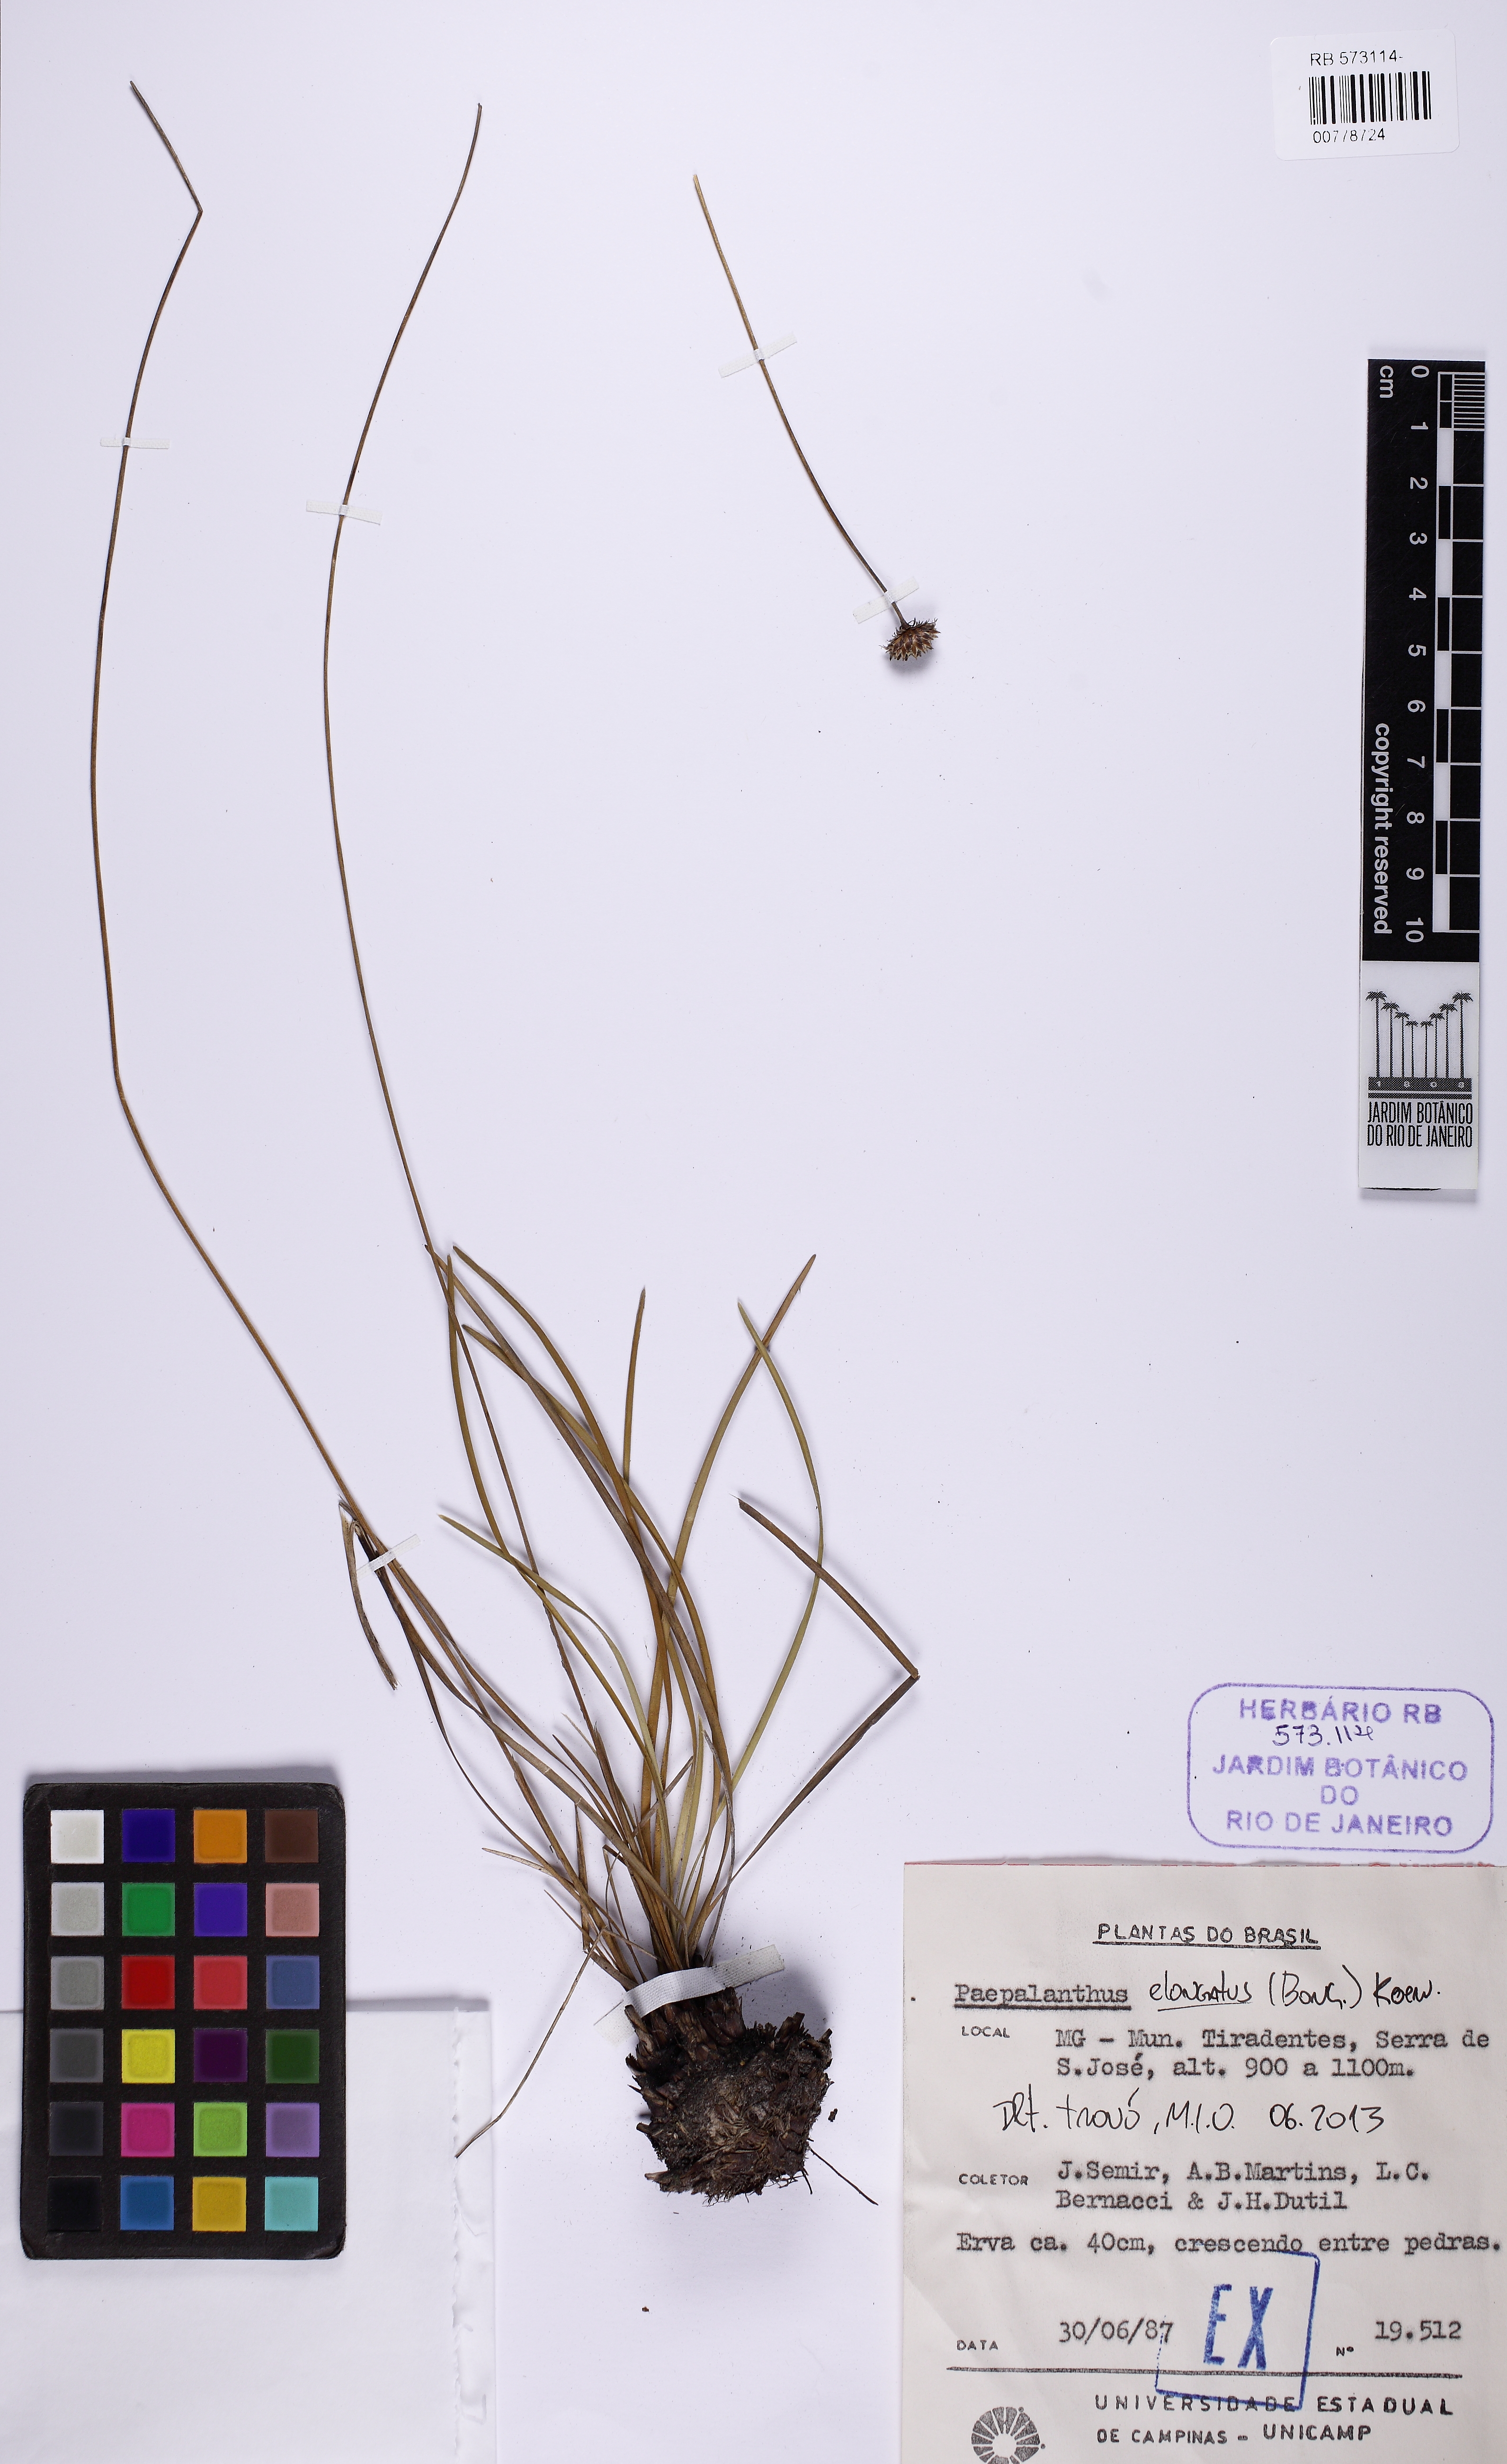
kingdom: Plantae
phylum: Tracheophyta
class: Liliopsida
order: Poales
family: Eriocaulaceae
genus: Paepalanthus
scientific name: Paepalanthus elongatus
